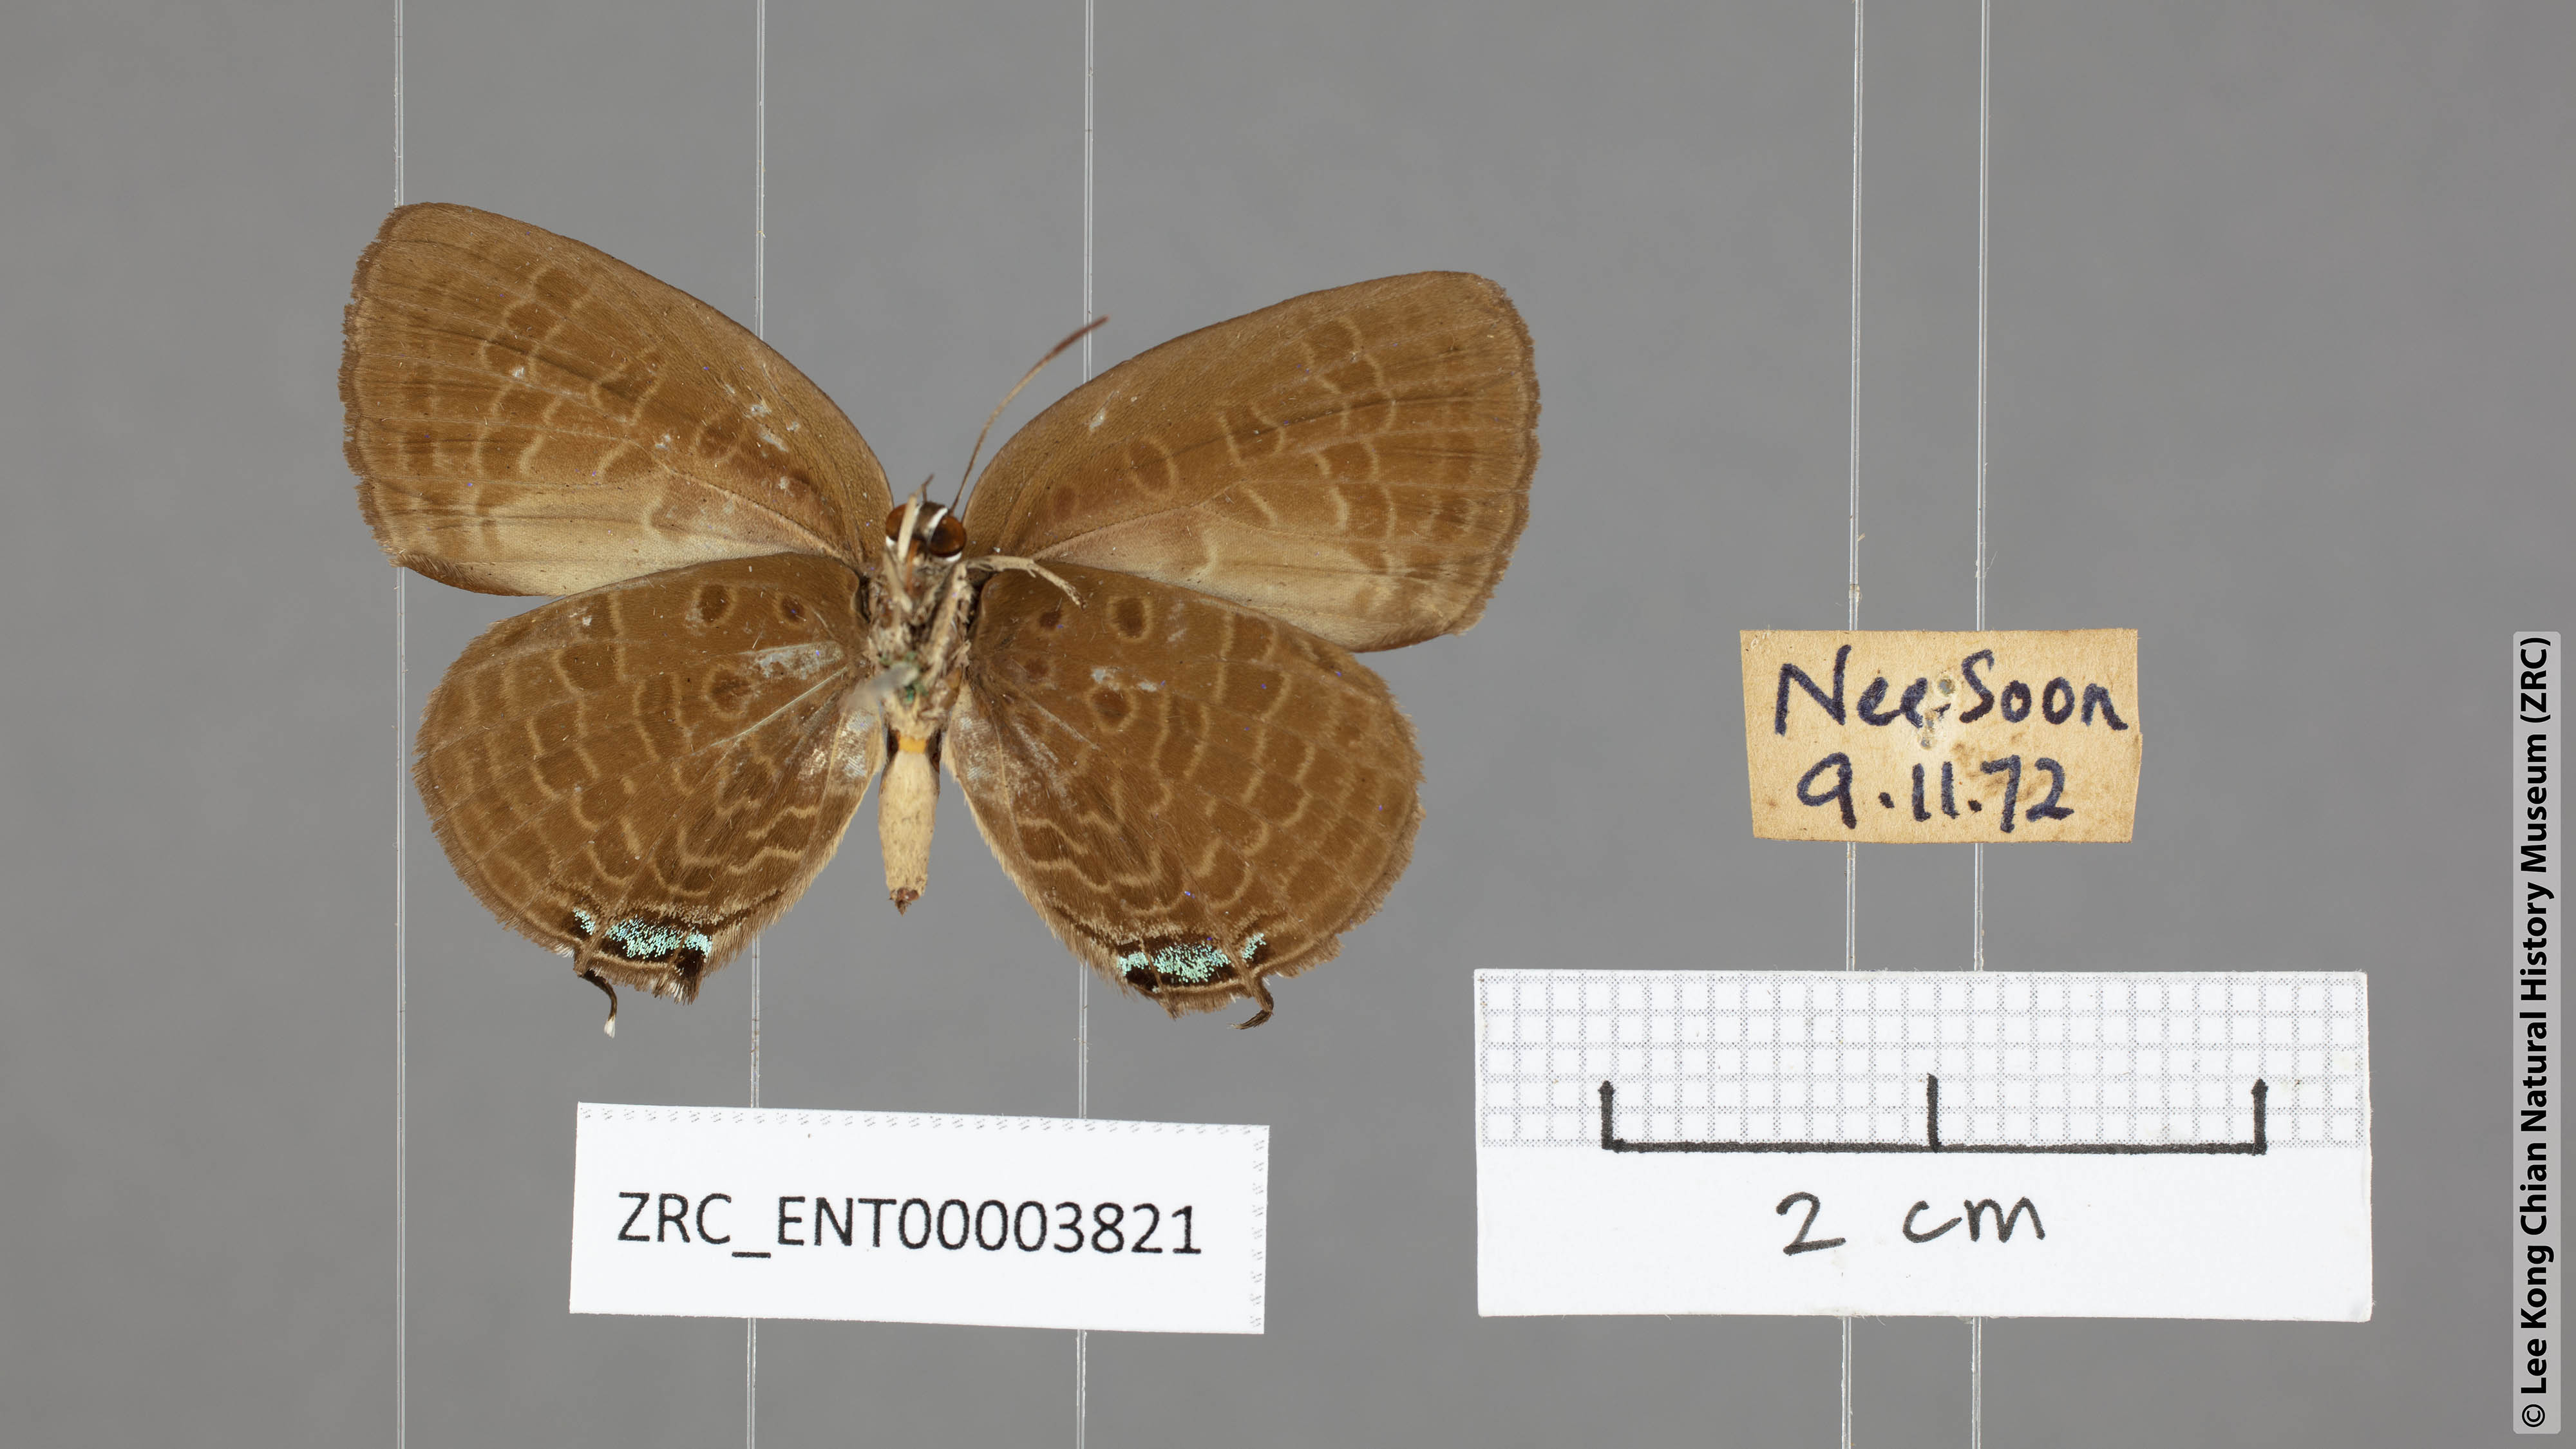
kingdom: Animalia
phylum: Arthropoda
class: Insecta
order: Lepidoptera
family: Lycaenidae
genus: Arhopala
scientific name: Arhopala agrata
